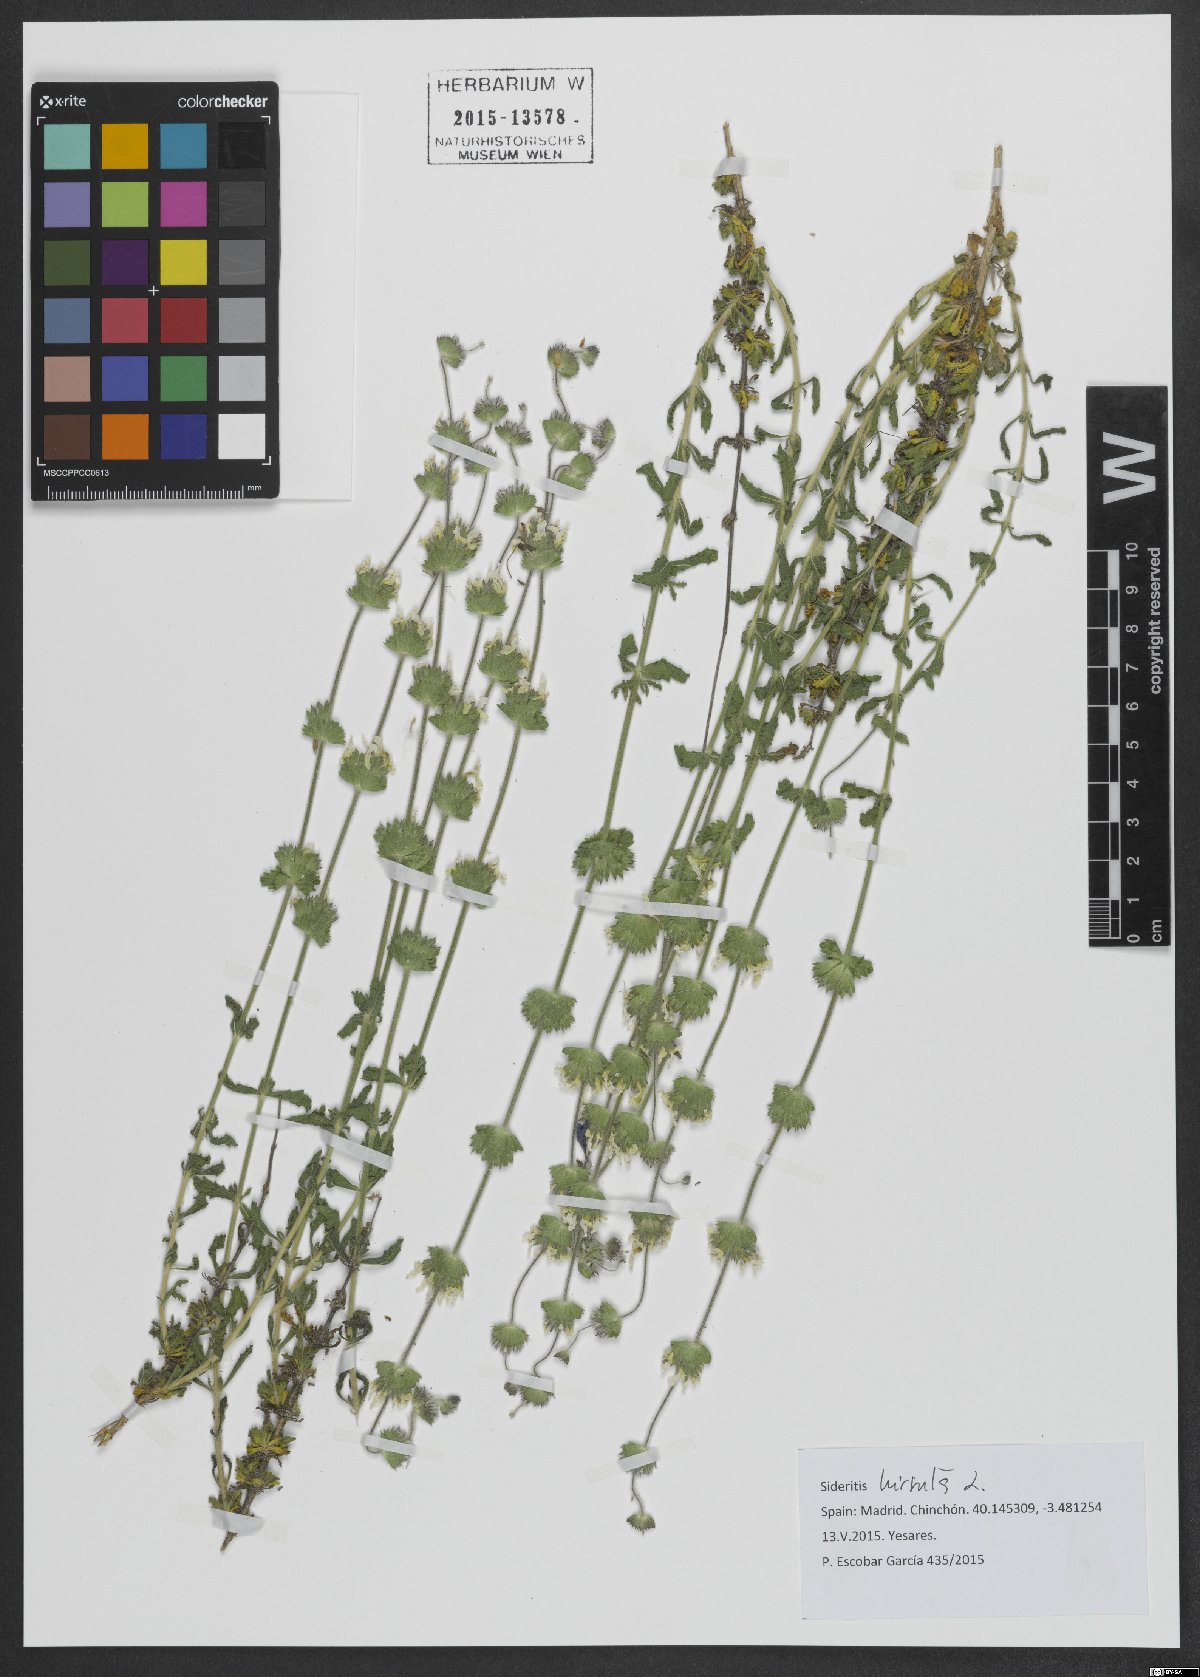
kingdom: Plantae
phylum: Tracheophyta
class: Magnoliopsida
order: Lamiales
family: Lamiaceae
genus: Sideritis
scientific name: Sideritis hirsuta
